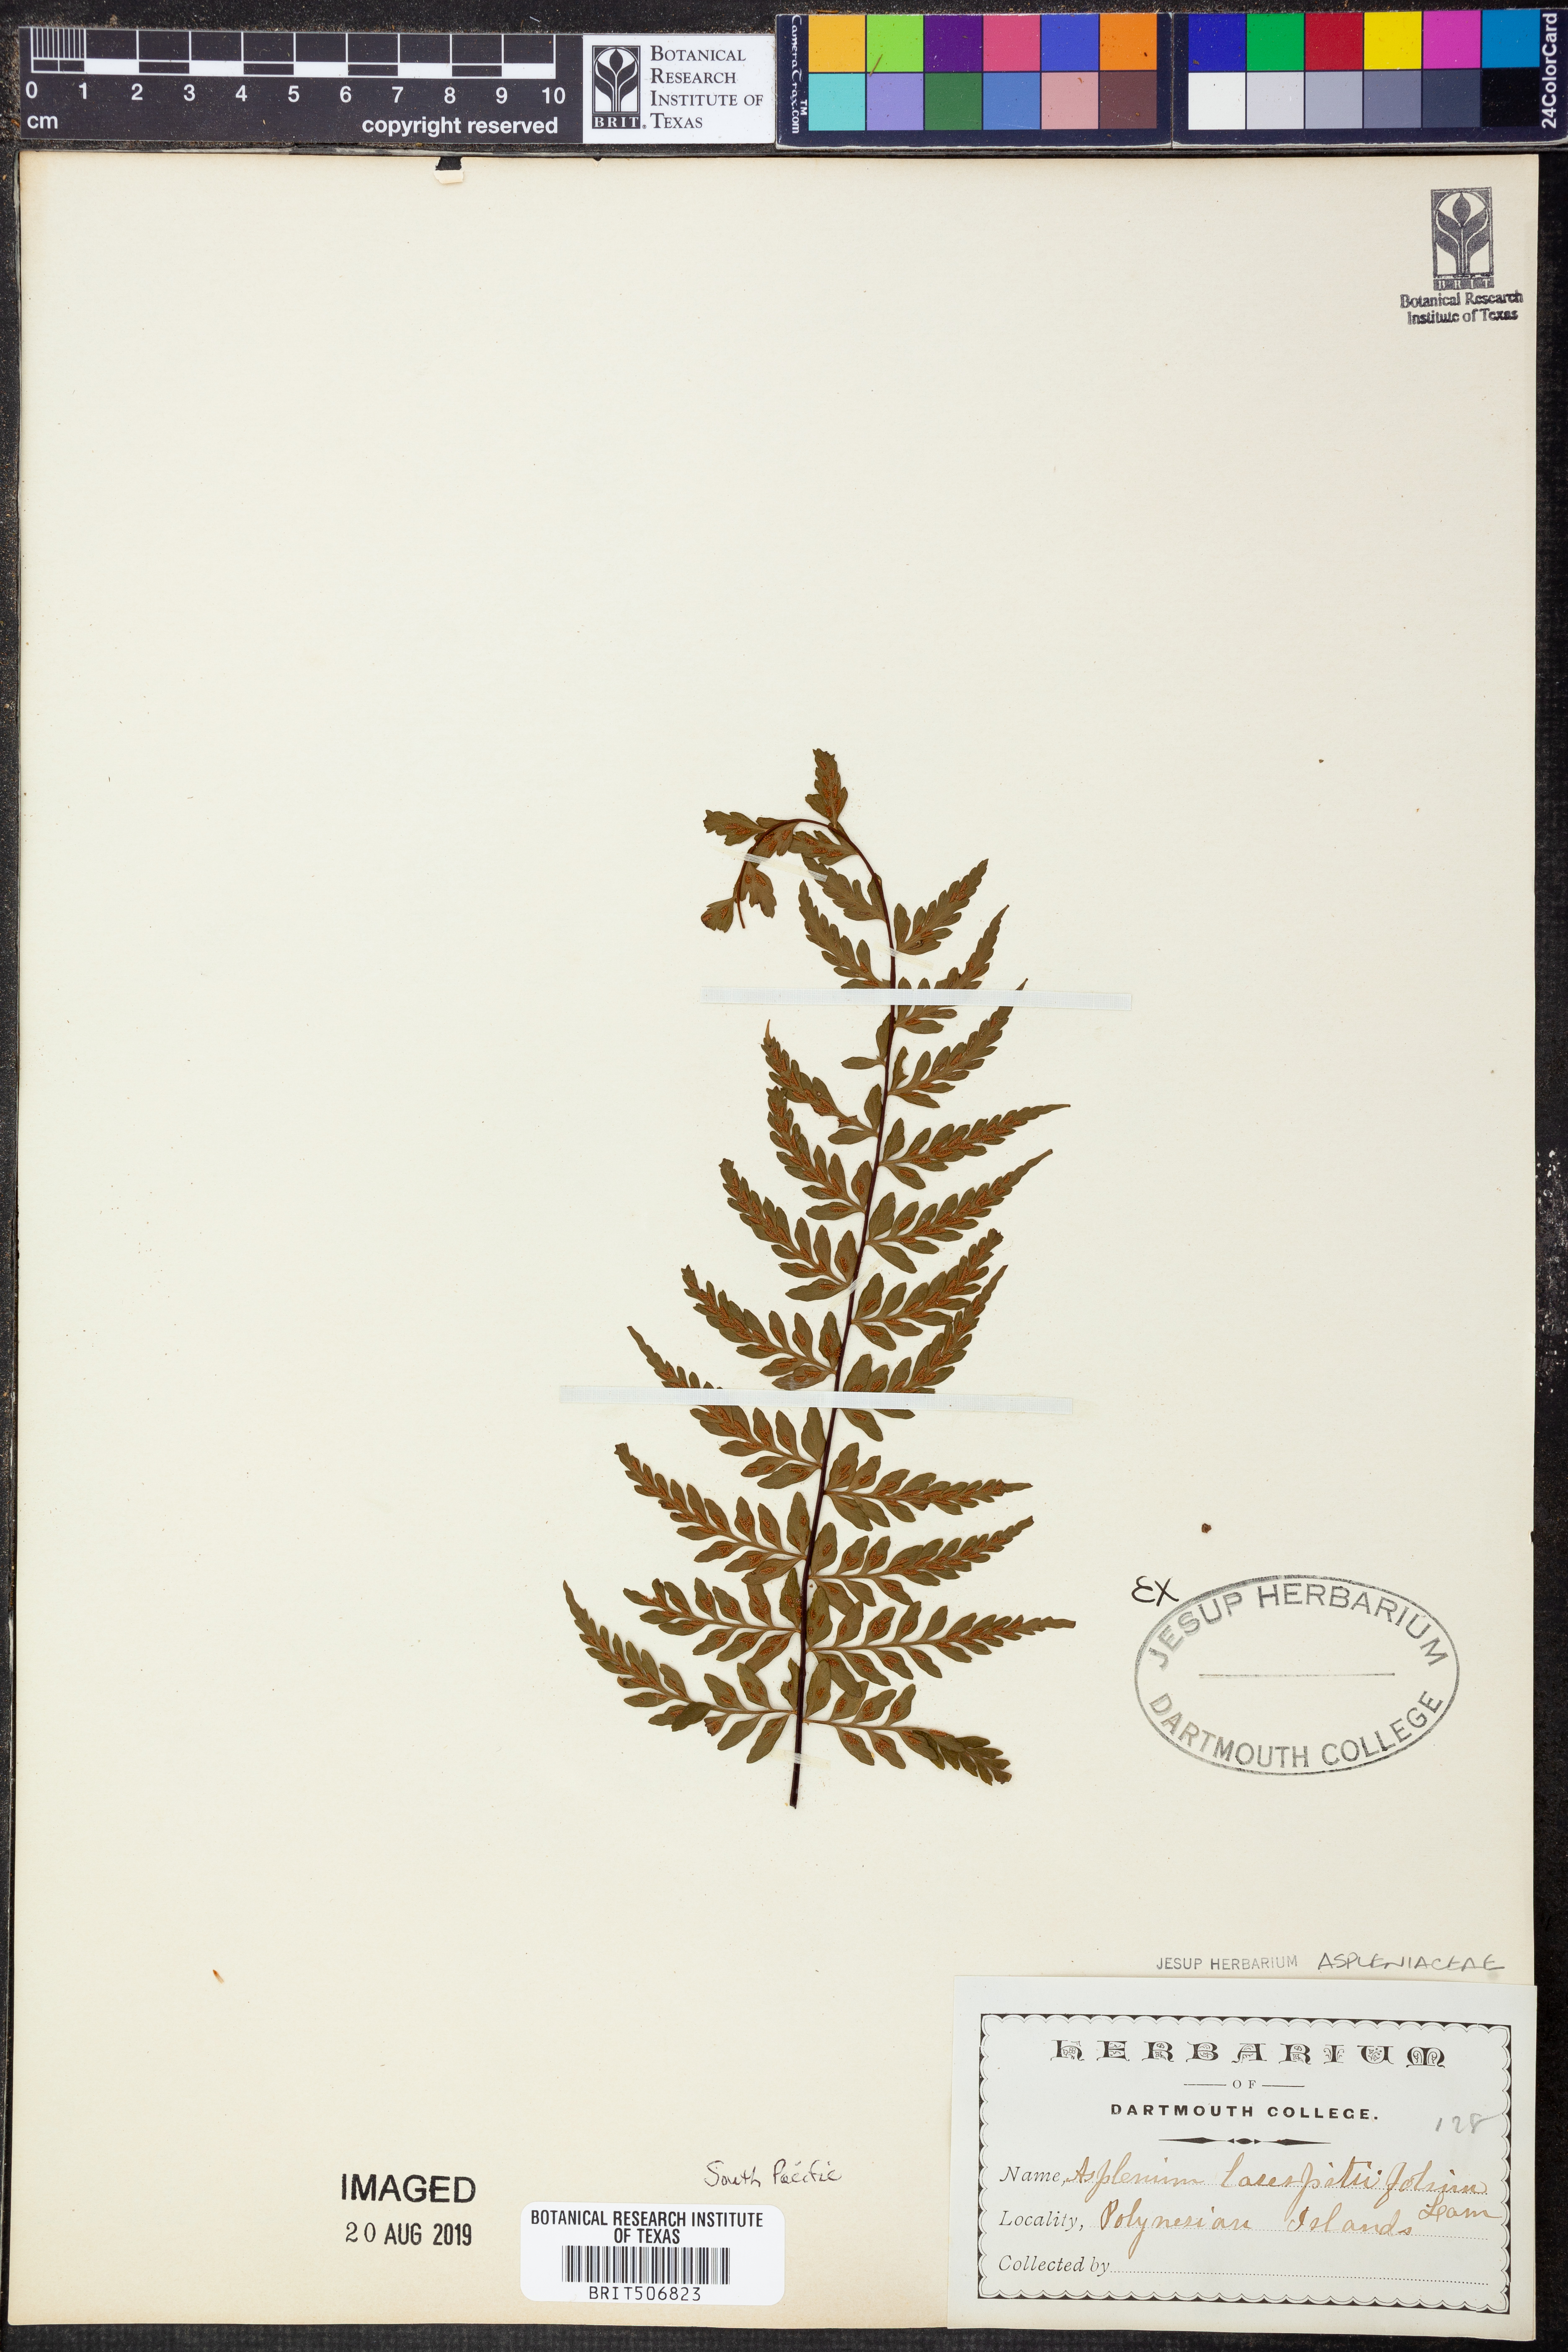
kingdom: Plantae
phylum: Tracheophyta
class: Polypodiopsida
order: Polypodiales
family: Aspleniaceae
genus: Asplenium
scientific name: Asplenium laserpitiifolium
